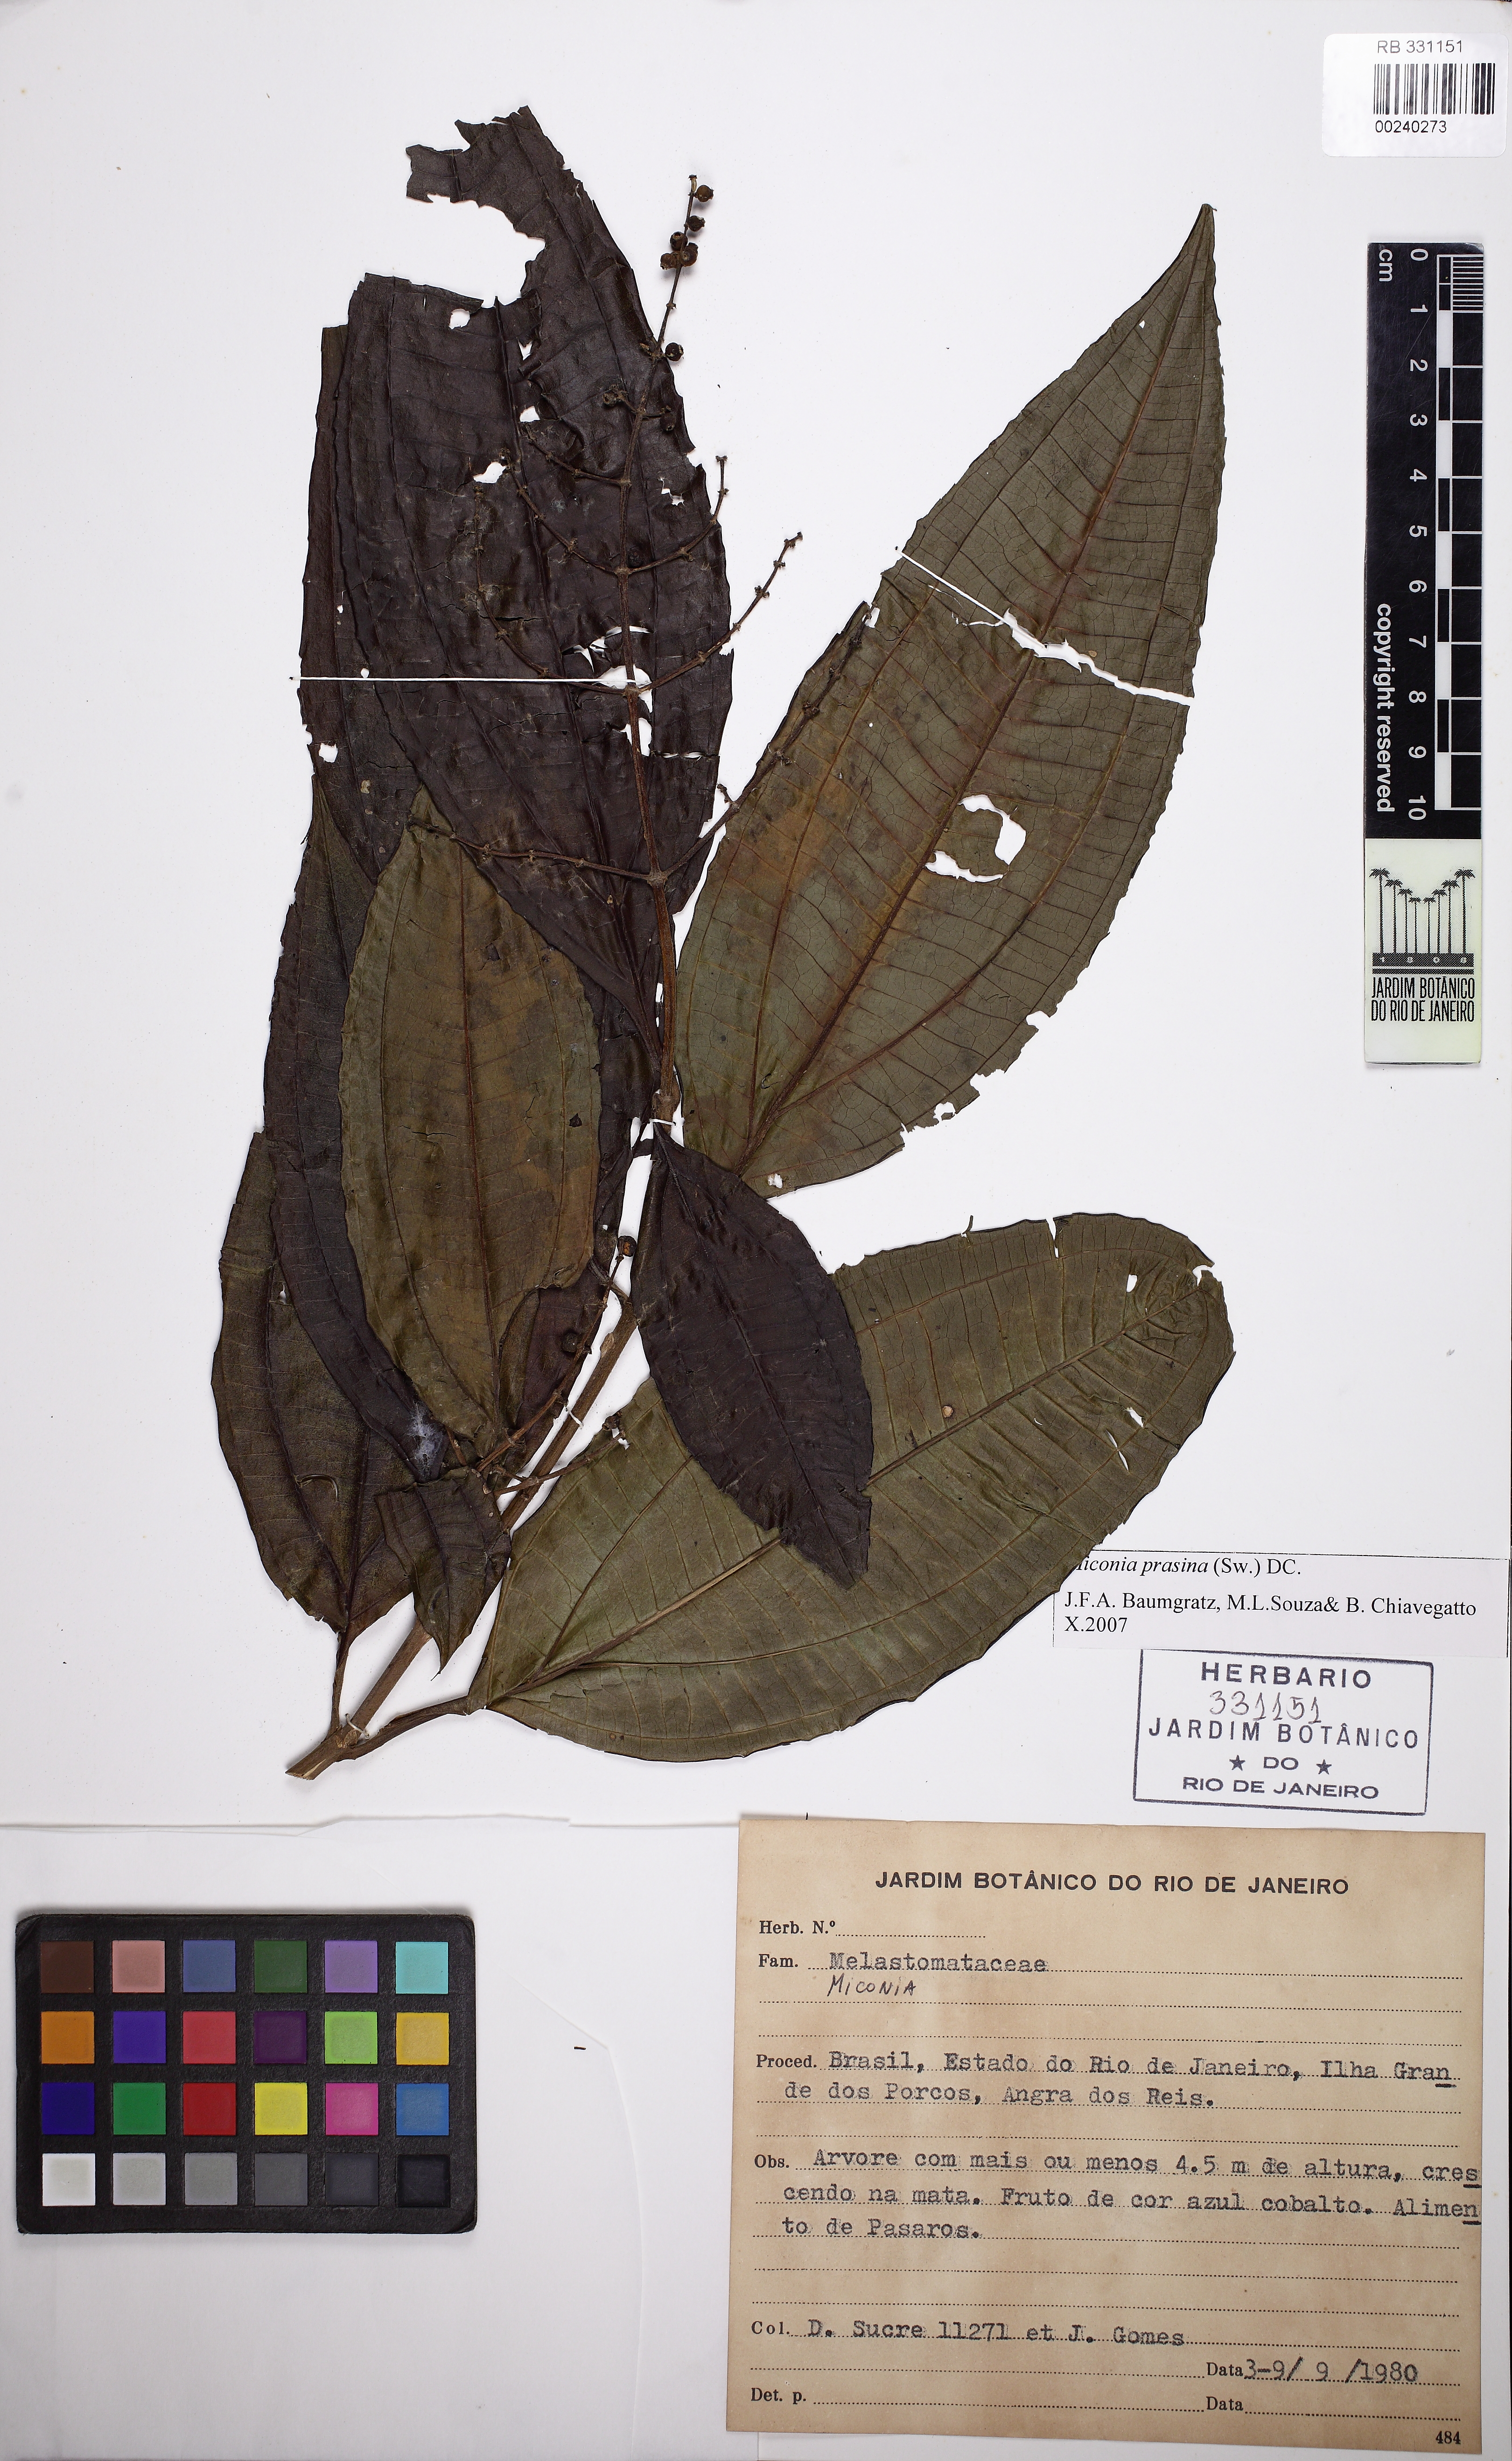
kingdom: Plantae
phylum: Tracheophyta
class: Magnoliopsida
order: Myrtales
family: Melastomataceae
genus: Miconia
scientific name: Miconia prasina
